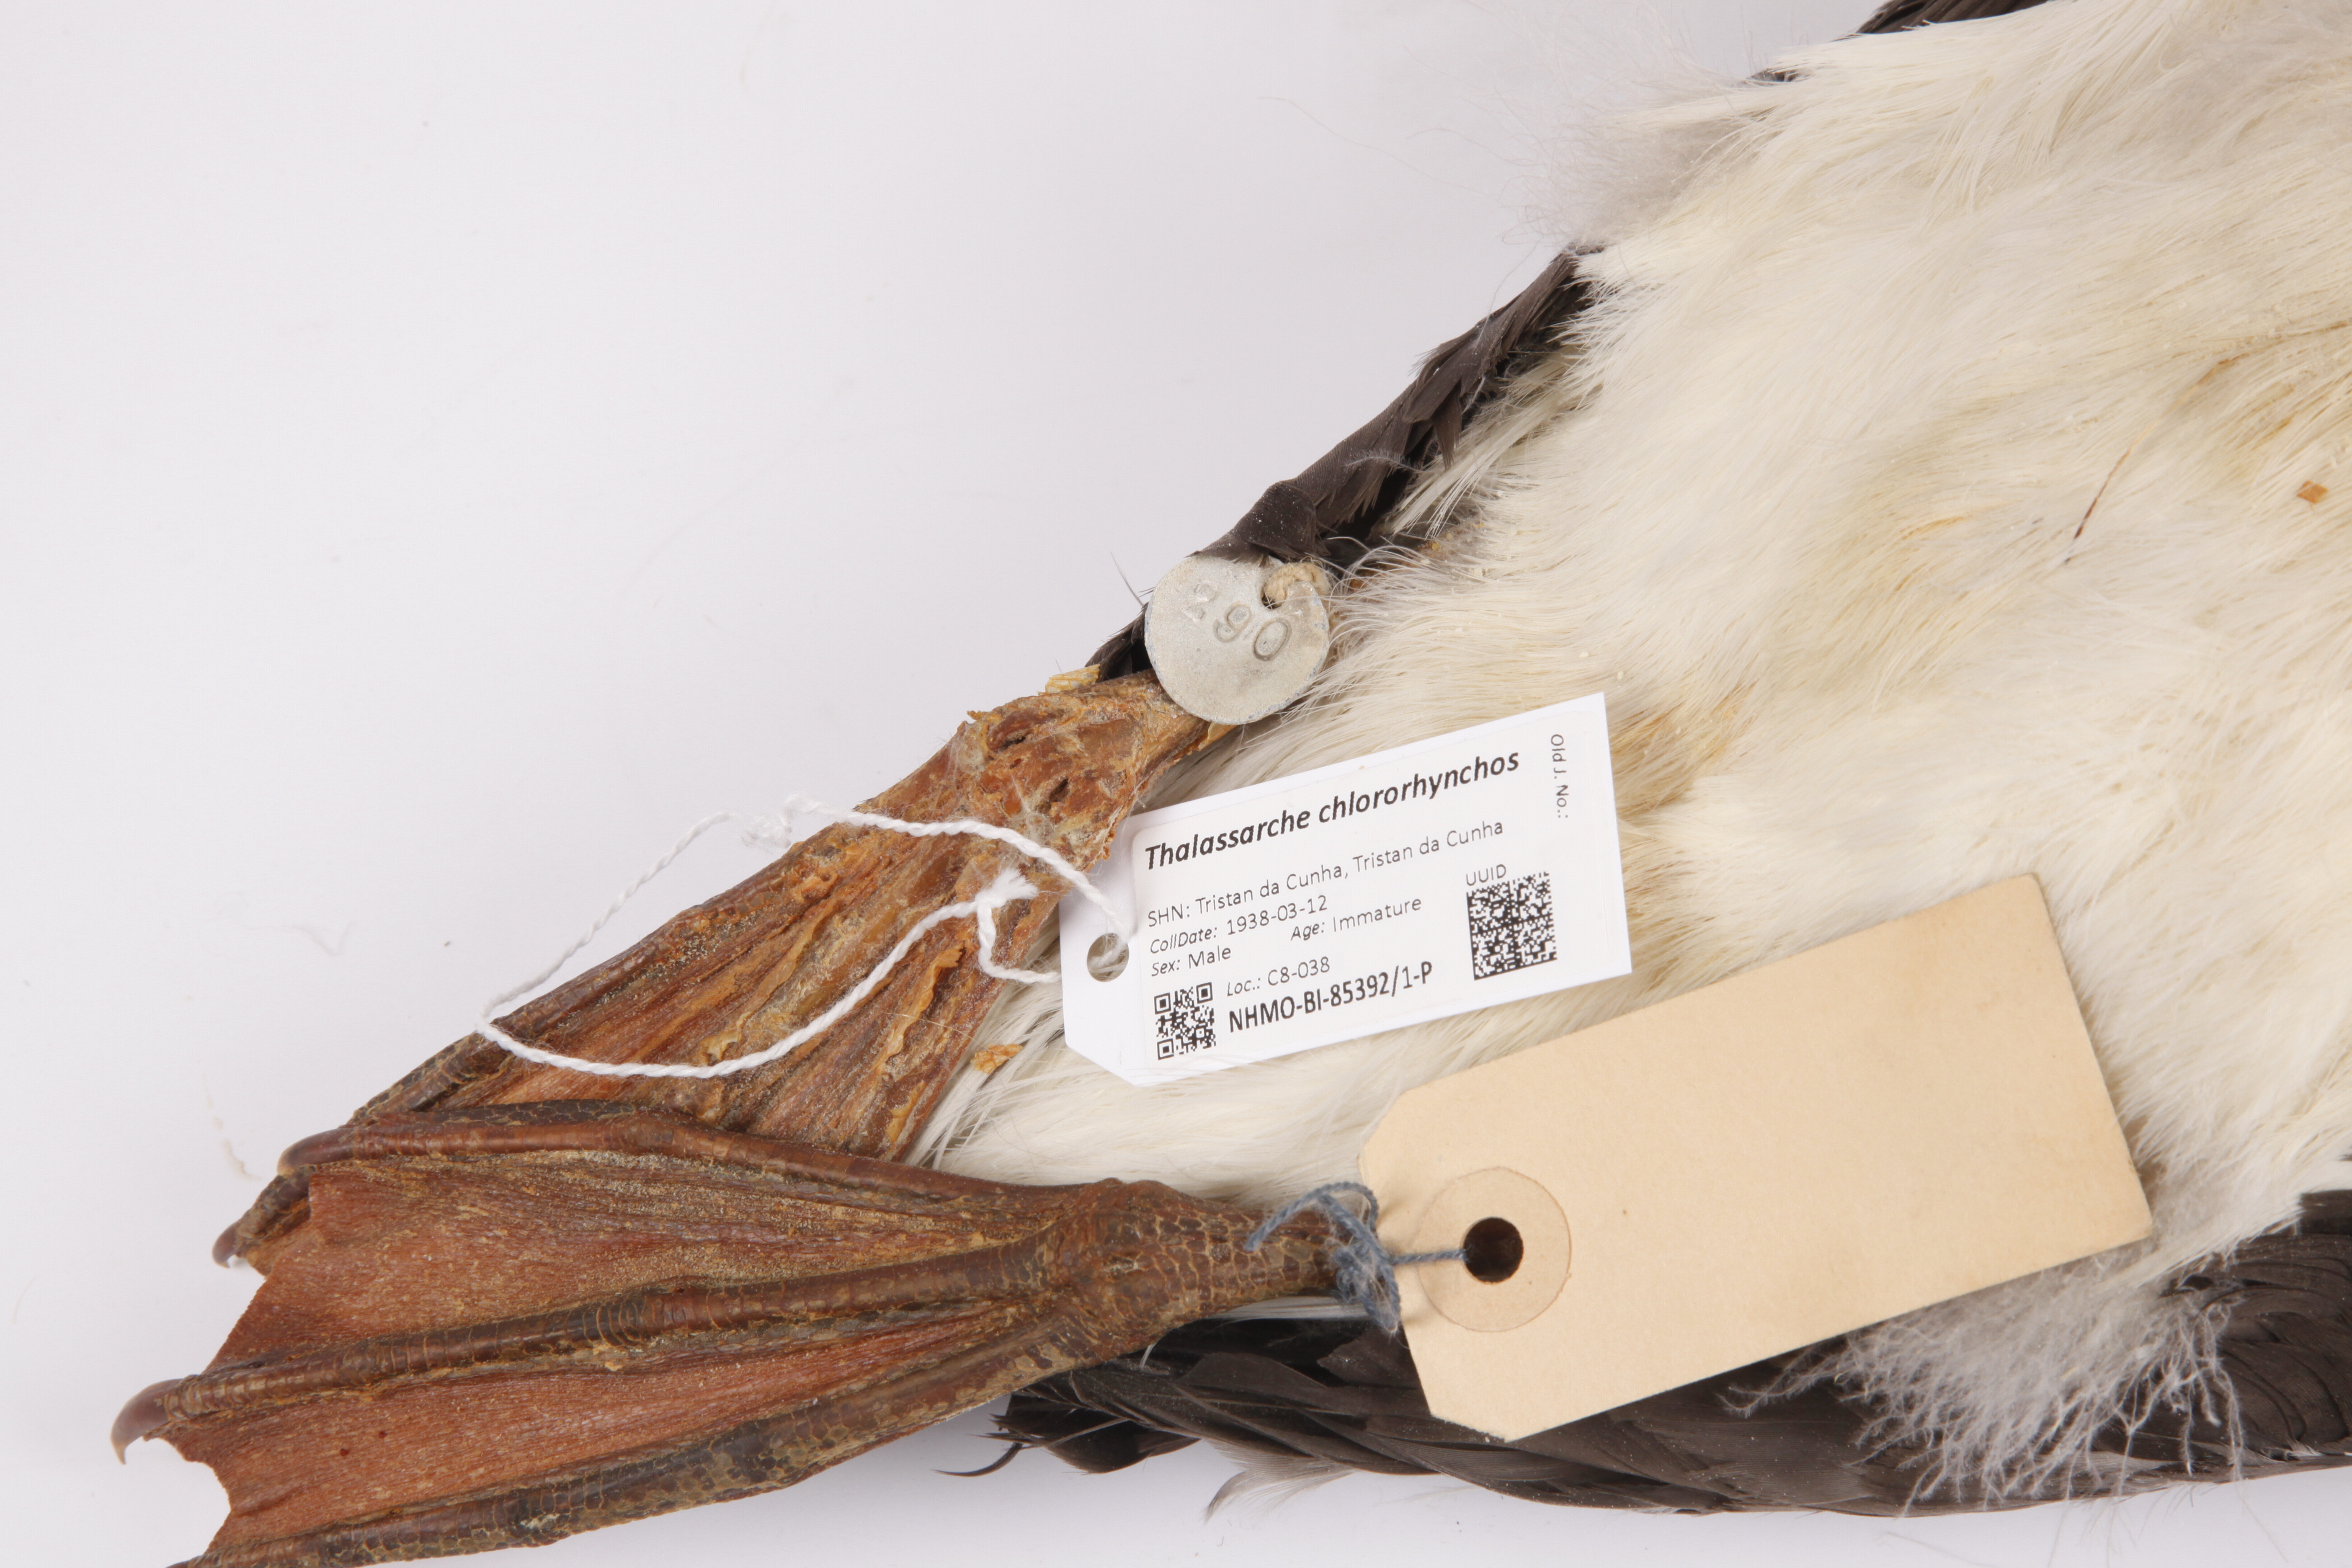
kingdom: Animalia
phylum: Chordata
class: Aves
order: Procellariiformes
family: Diomedeidae
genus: Thalassarche
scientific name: Thalassarche chlororhynchos
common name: Atlantic yellow-nosed albatross
